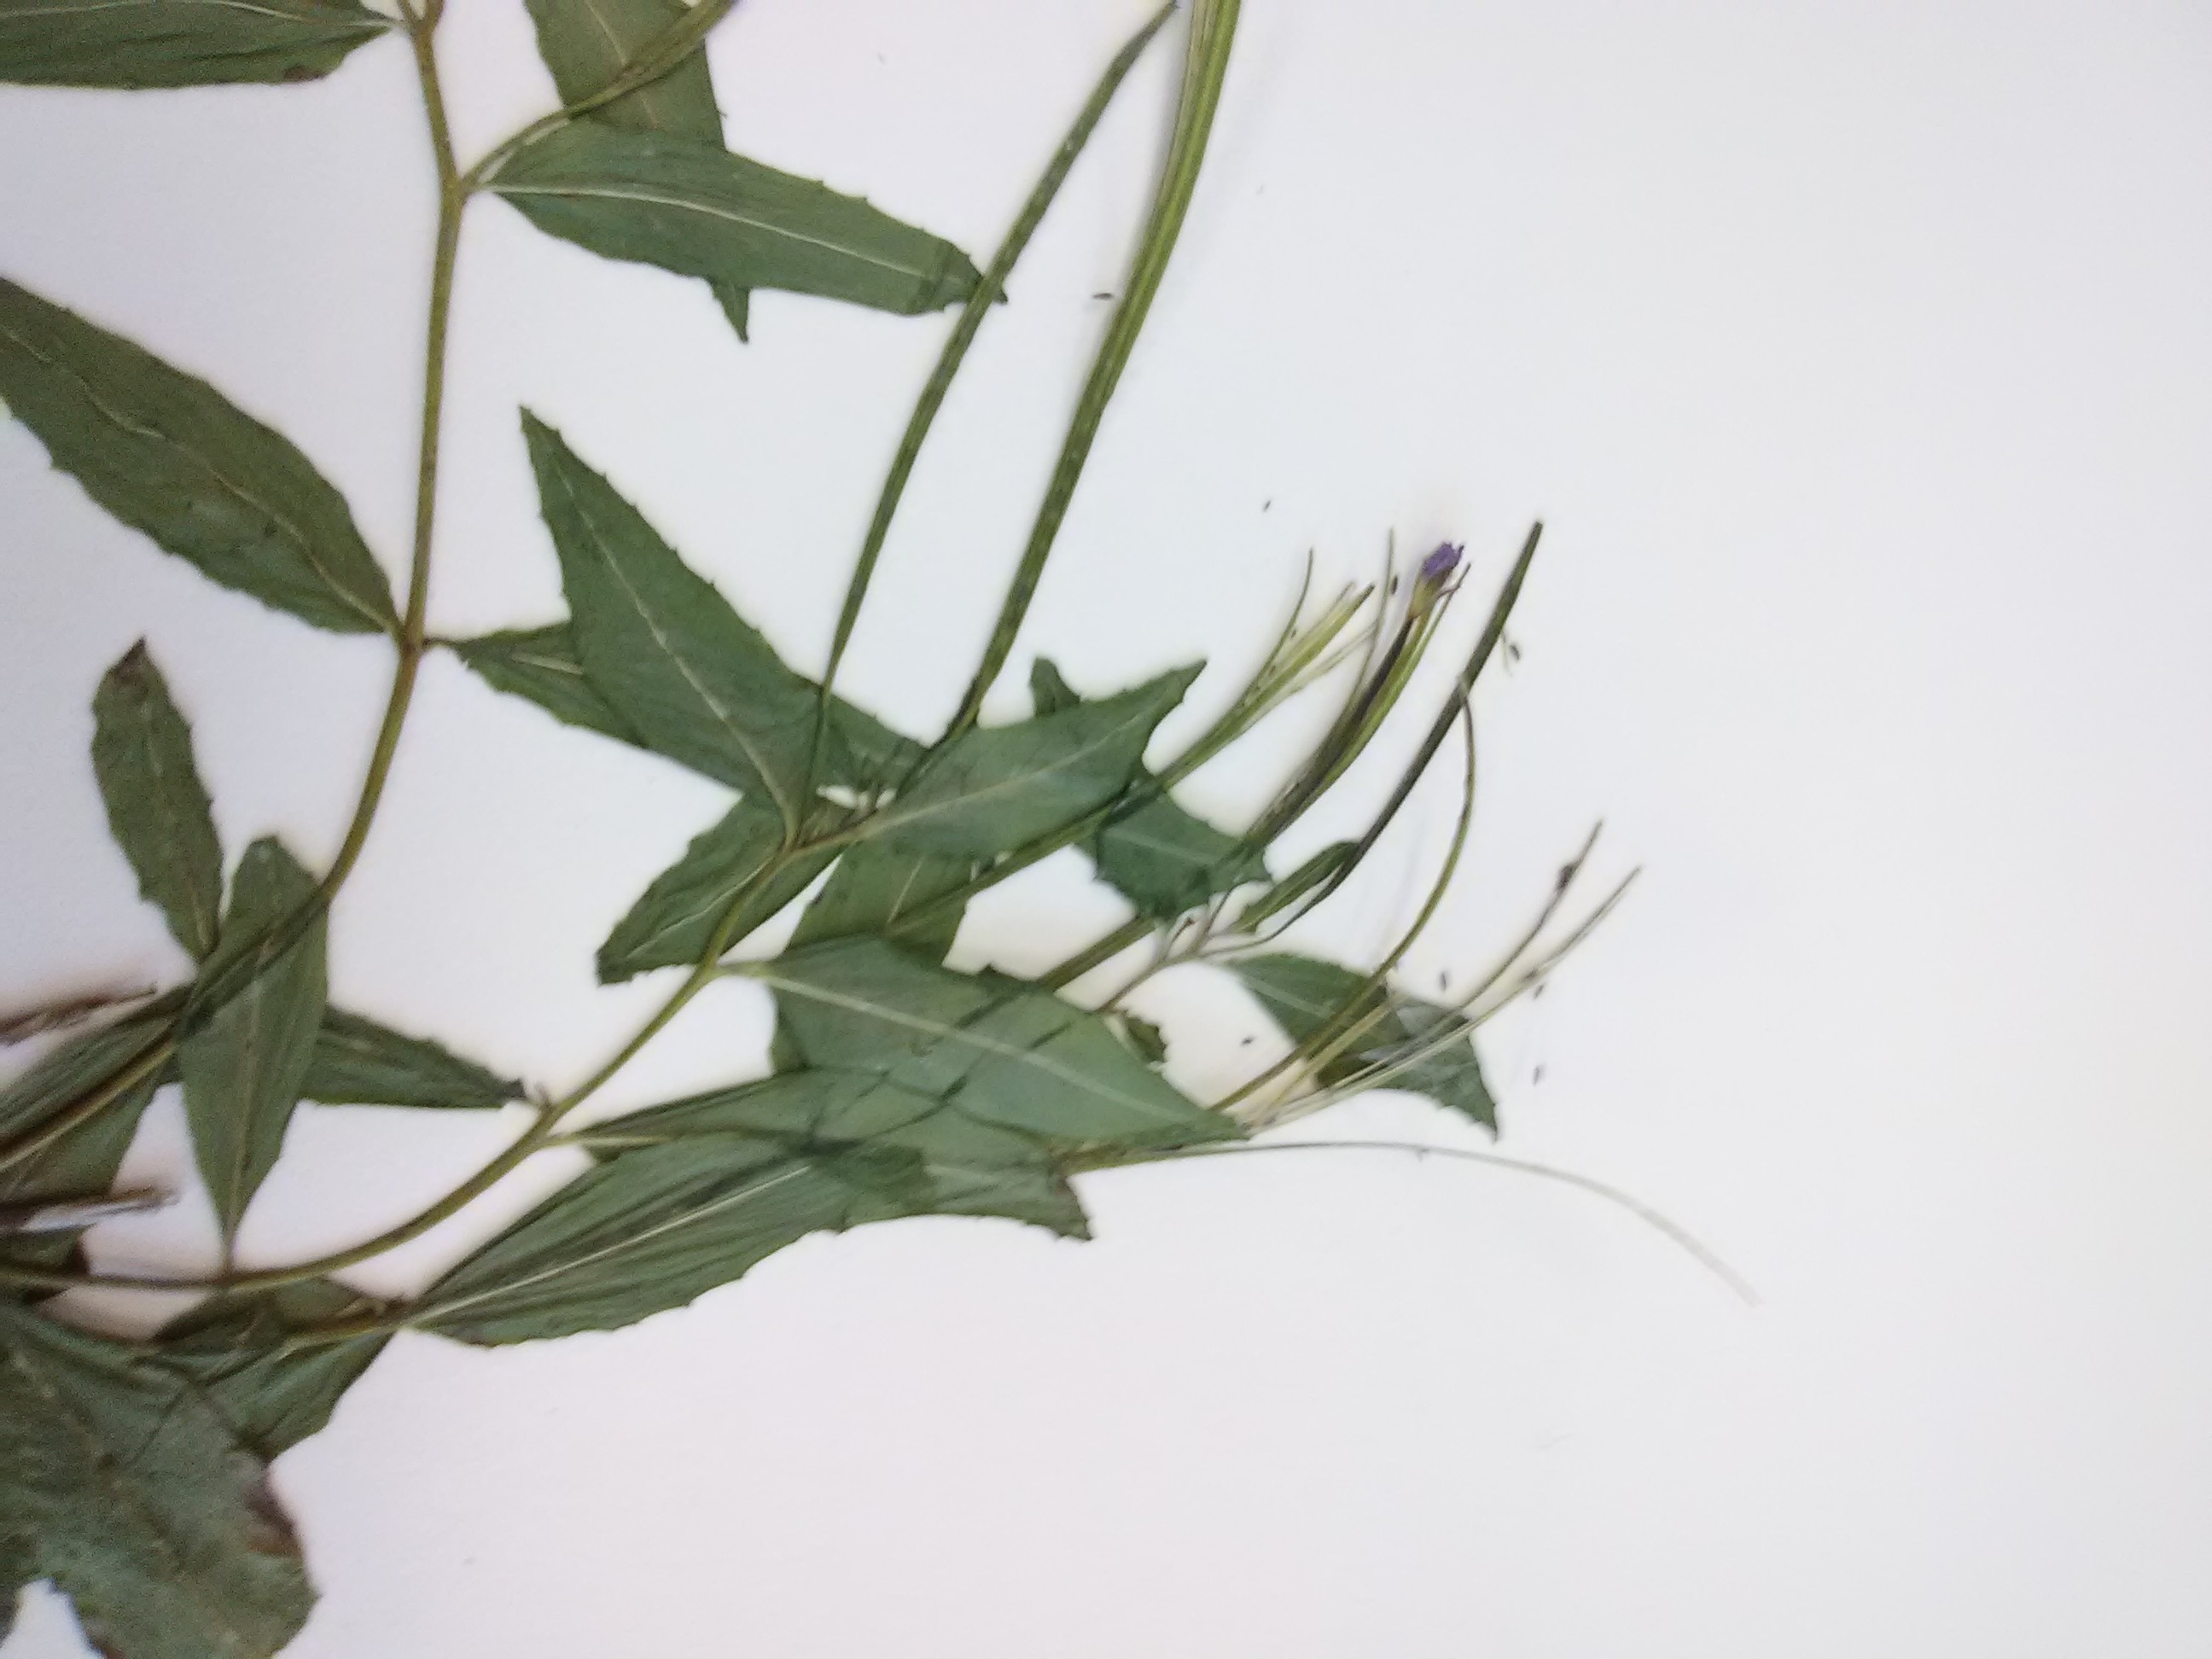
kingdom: Plantae
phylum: Tracheophyta
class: Liliopsida
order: Poales
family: Cyperaceae
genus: Carex
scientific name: Carex plantaginea
